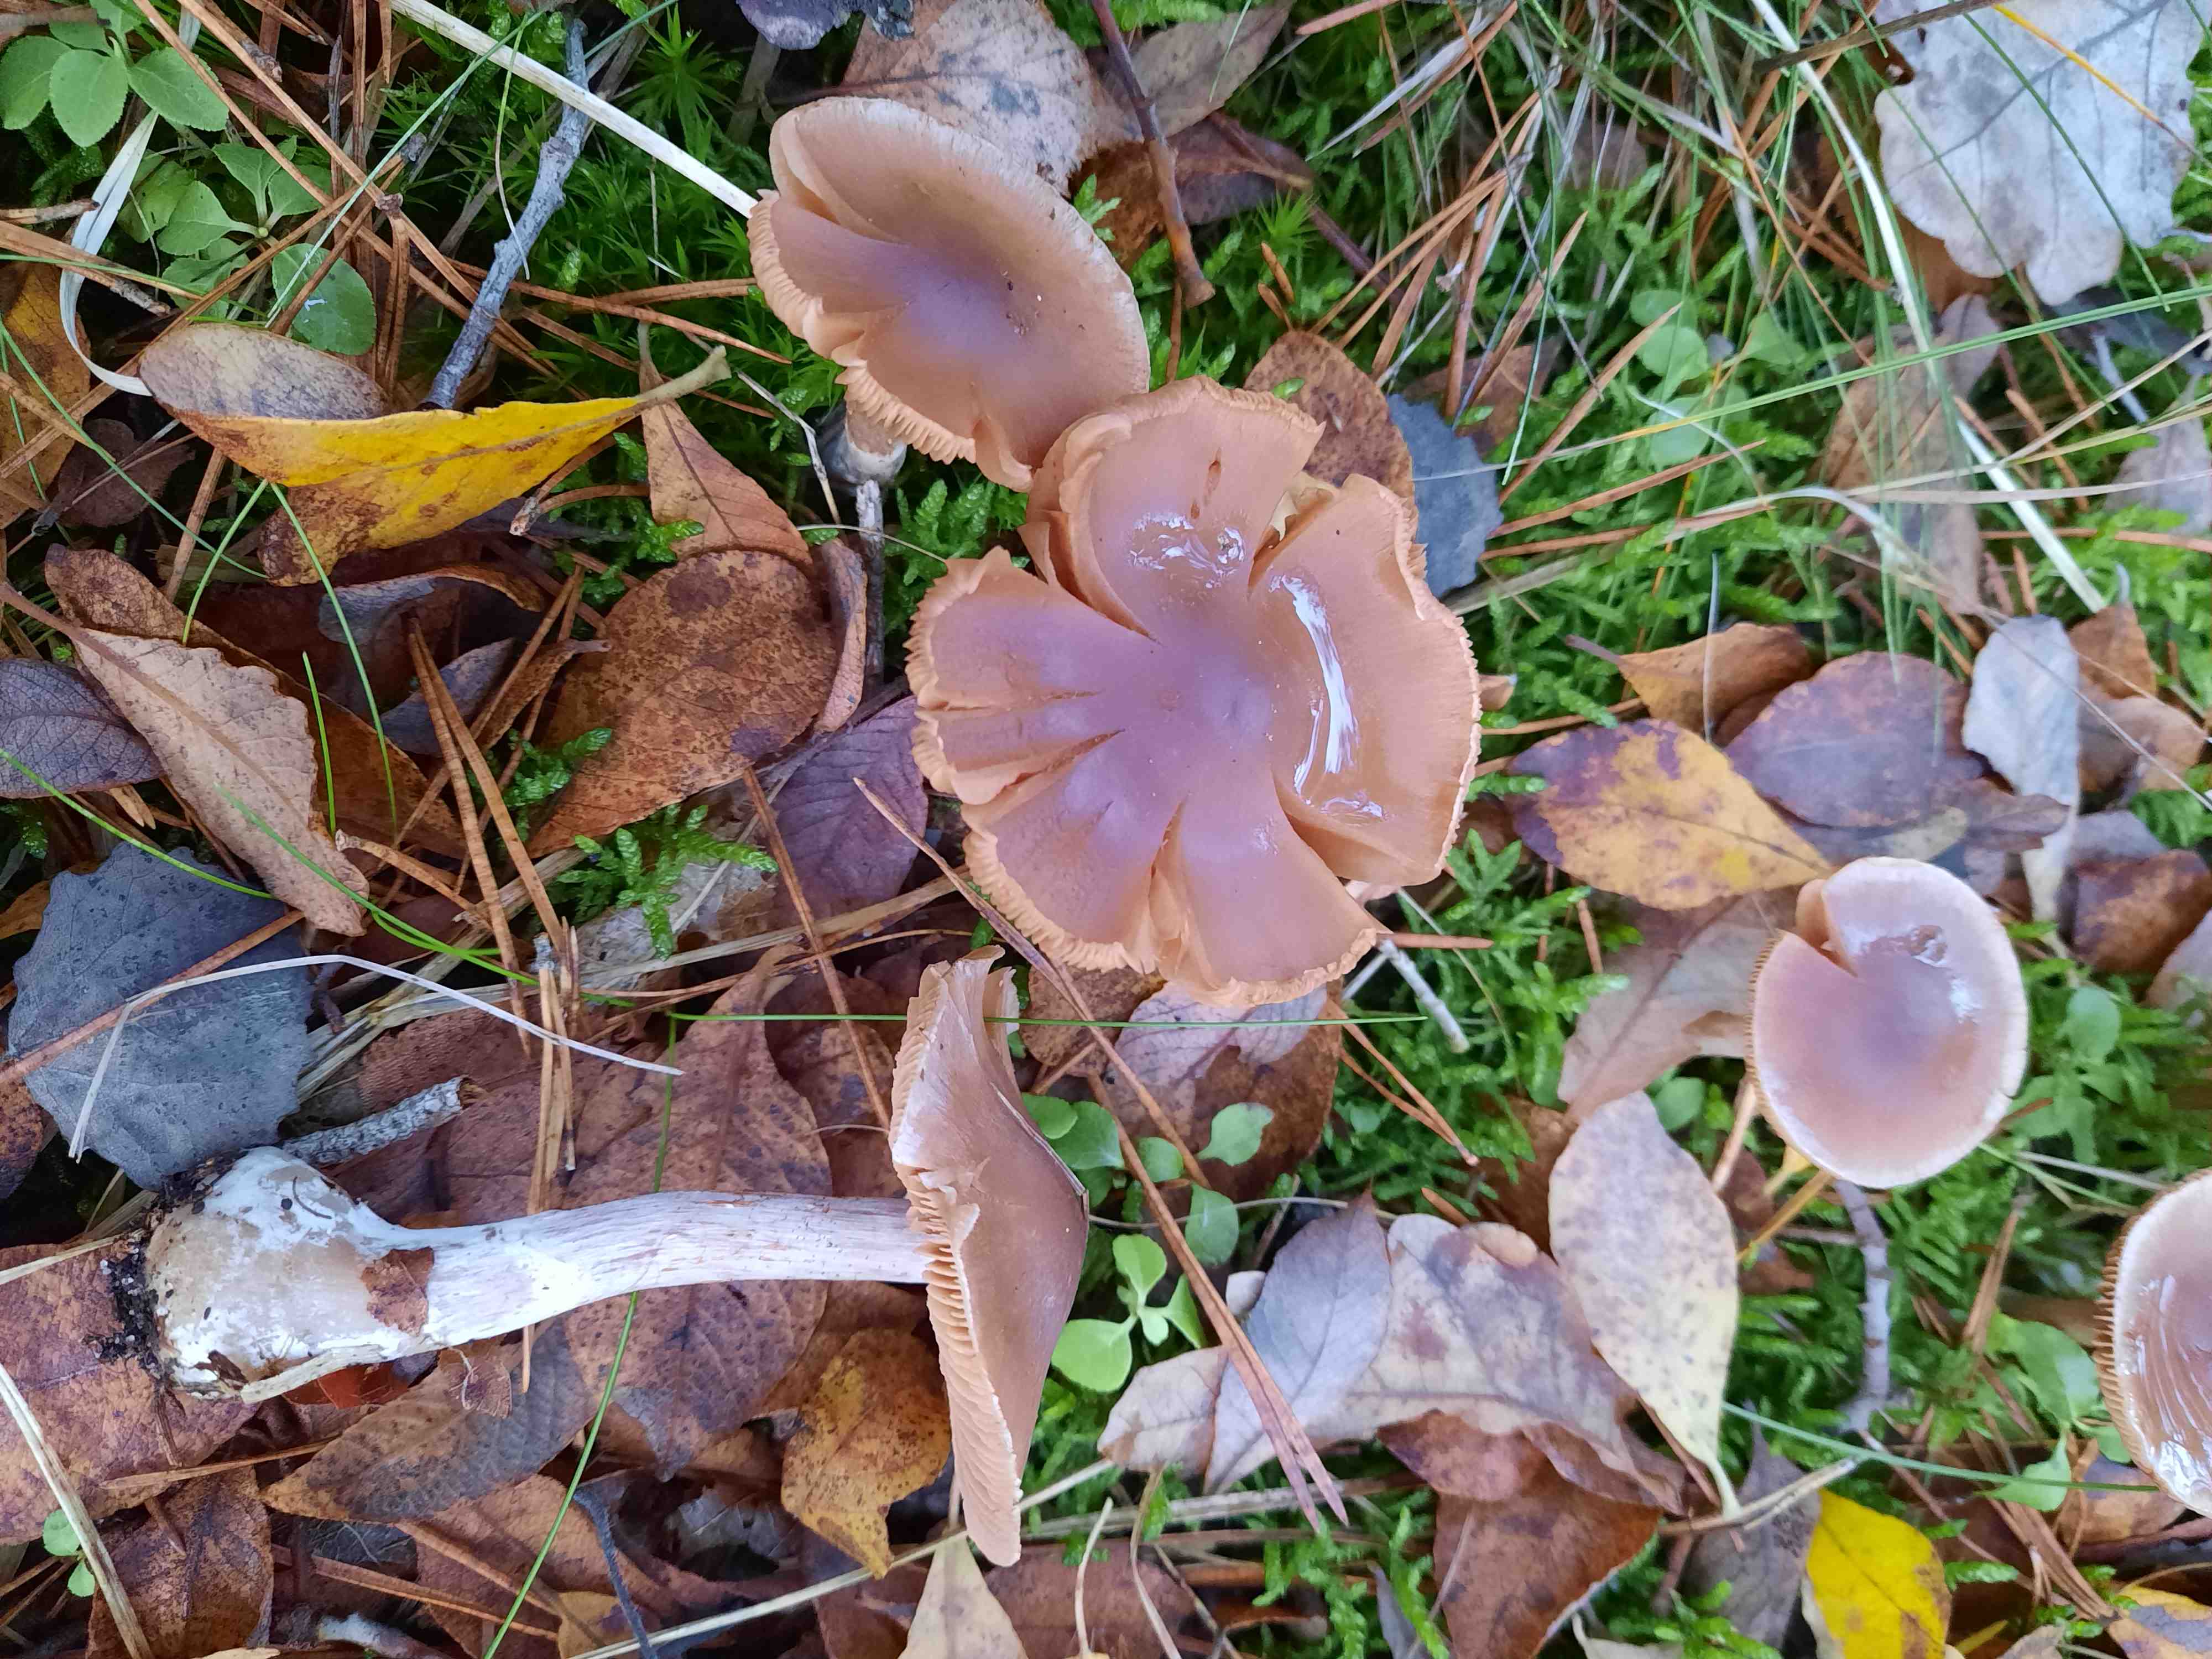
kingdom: Fungi
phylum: Basidiomycota
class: Agaricomycetes
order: Agaricales
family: Cortinariaceae
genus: Cortinarius
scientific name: Cortinarius saturninus
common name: brunviolet slørhat
